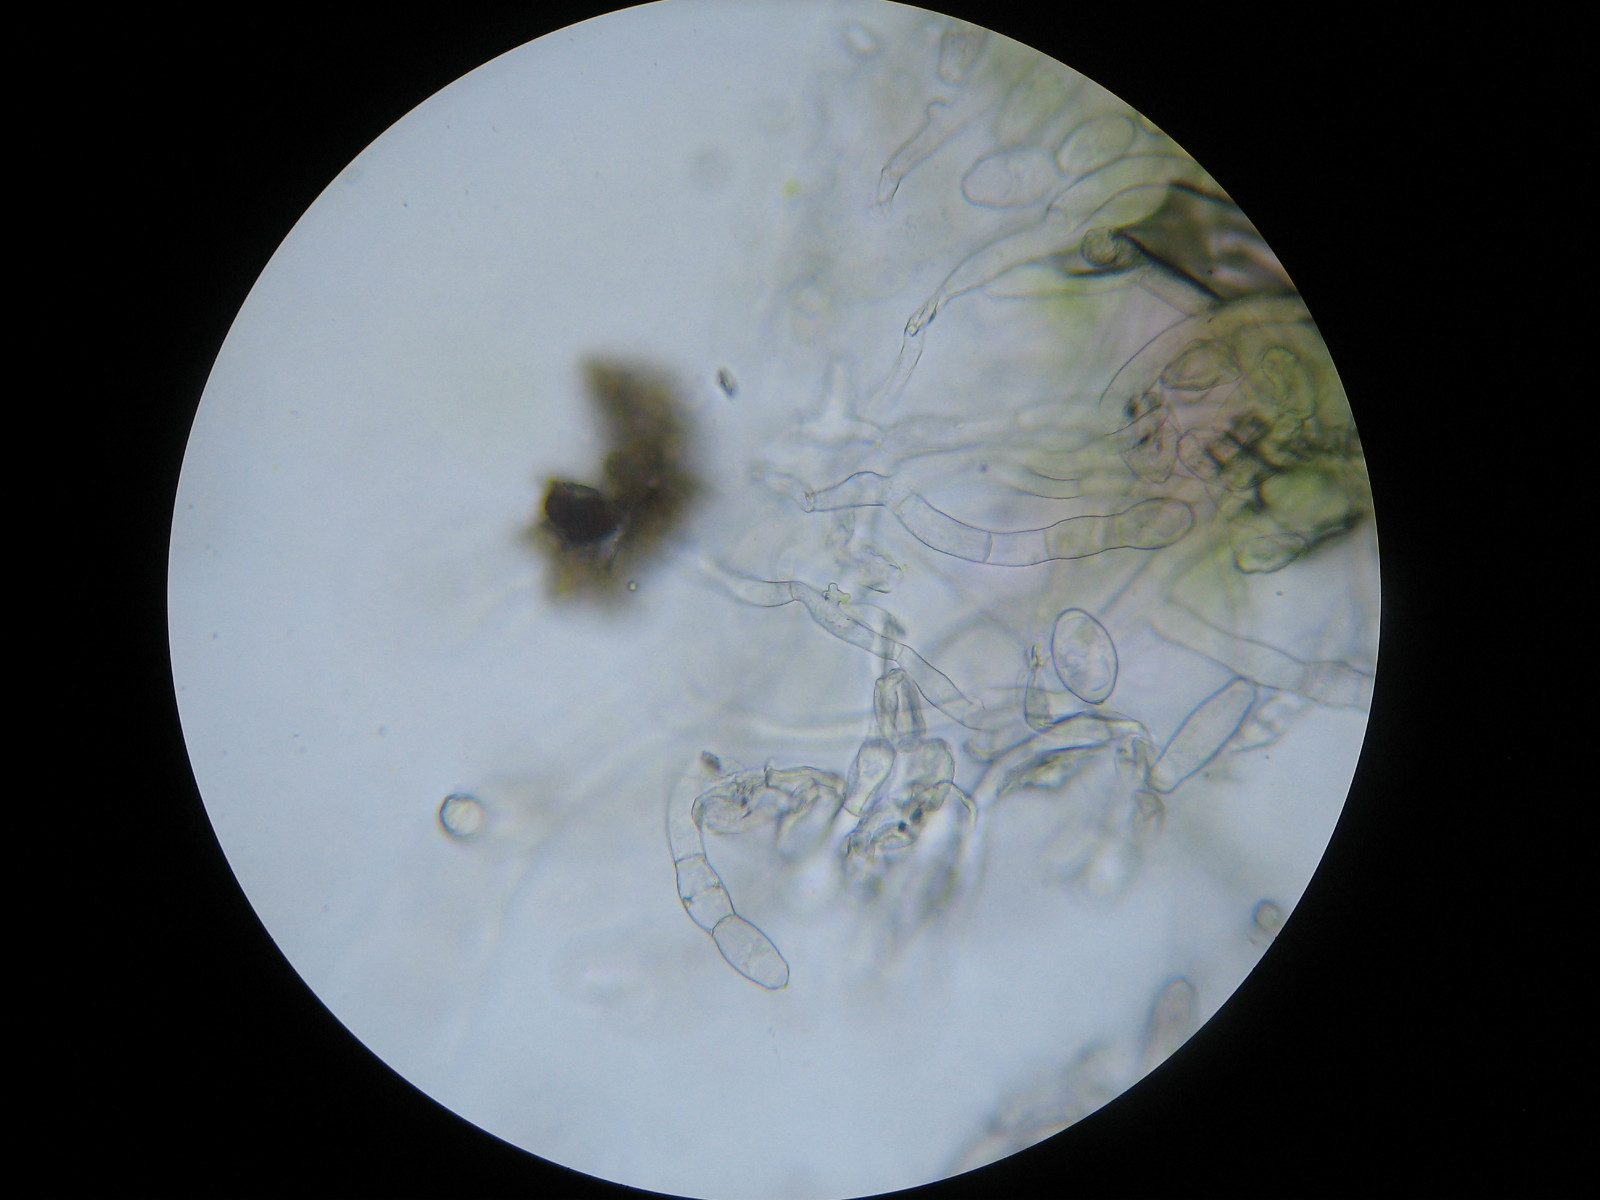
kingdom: Fungi
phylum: Ascomycota
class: Leotiomycetes
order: Helotiales
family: Erysiphaceae
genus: Neoerysiphe
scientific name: Neoerysiphe galeopsidis
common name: Mint mildew
